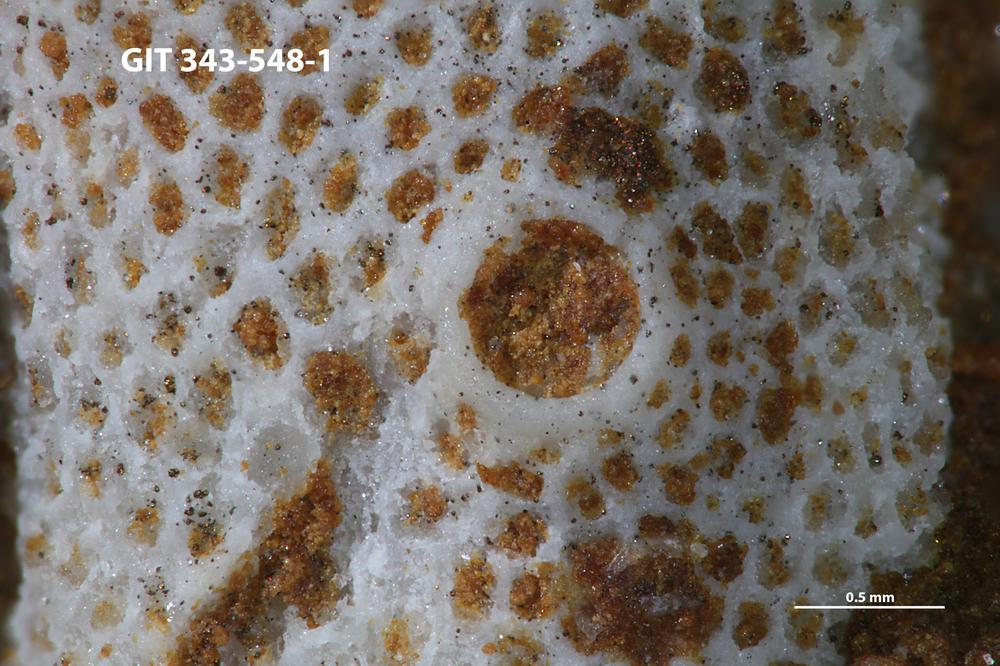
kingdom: Animalia
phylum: Annelida
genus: Anoigmaichnus
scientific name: Anoigmaichnus
